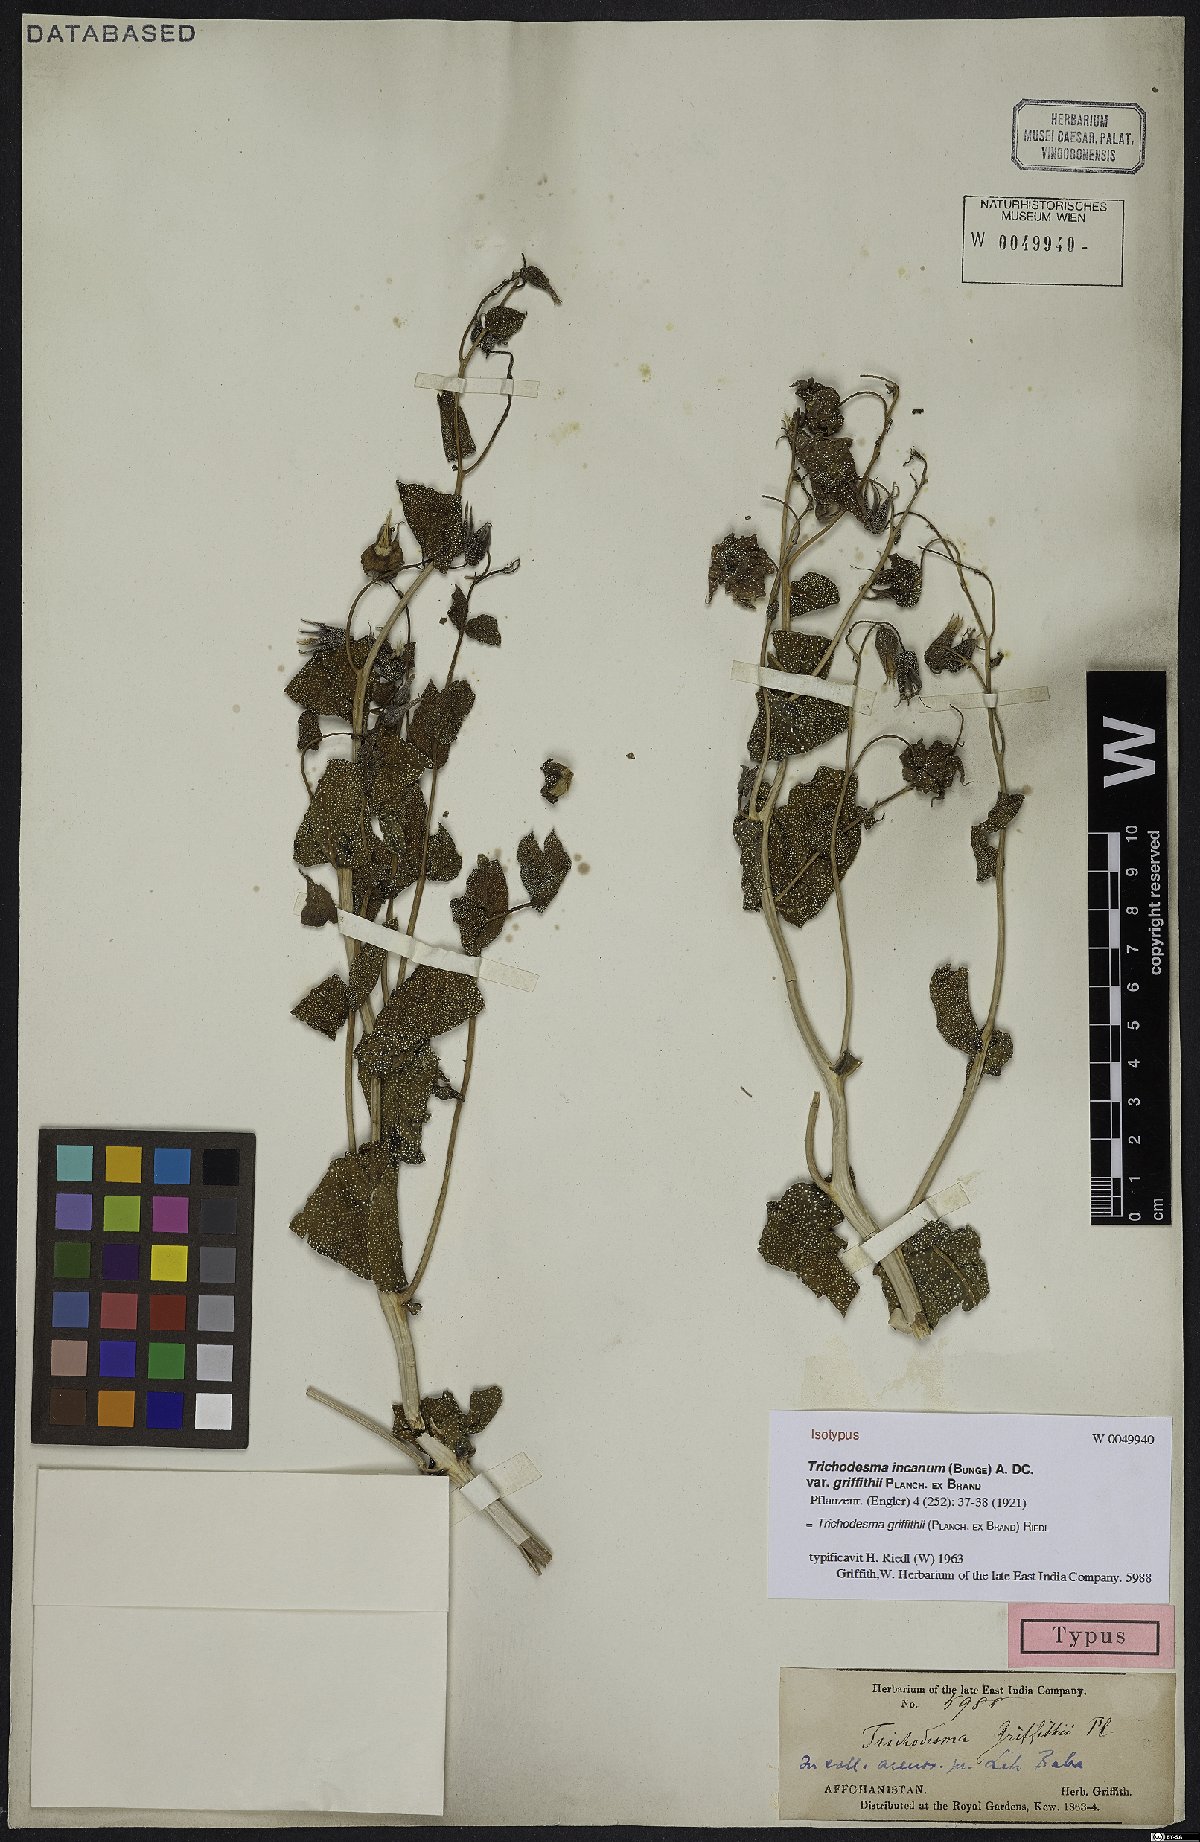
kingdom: Plantae
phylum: Tracheophyta
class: Magnoliopsida
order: Boraginales
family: Boraginaceae
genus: Trichodesma
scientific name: Trichodesma griffithii
